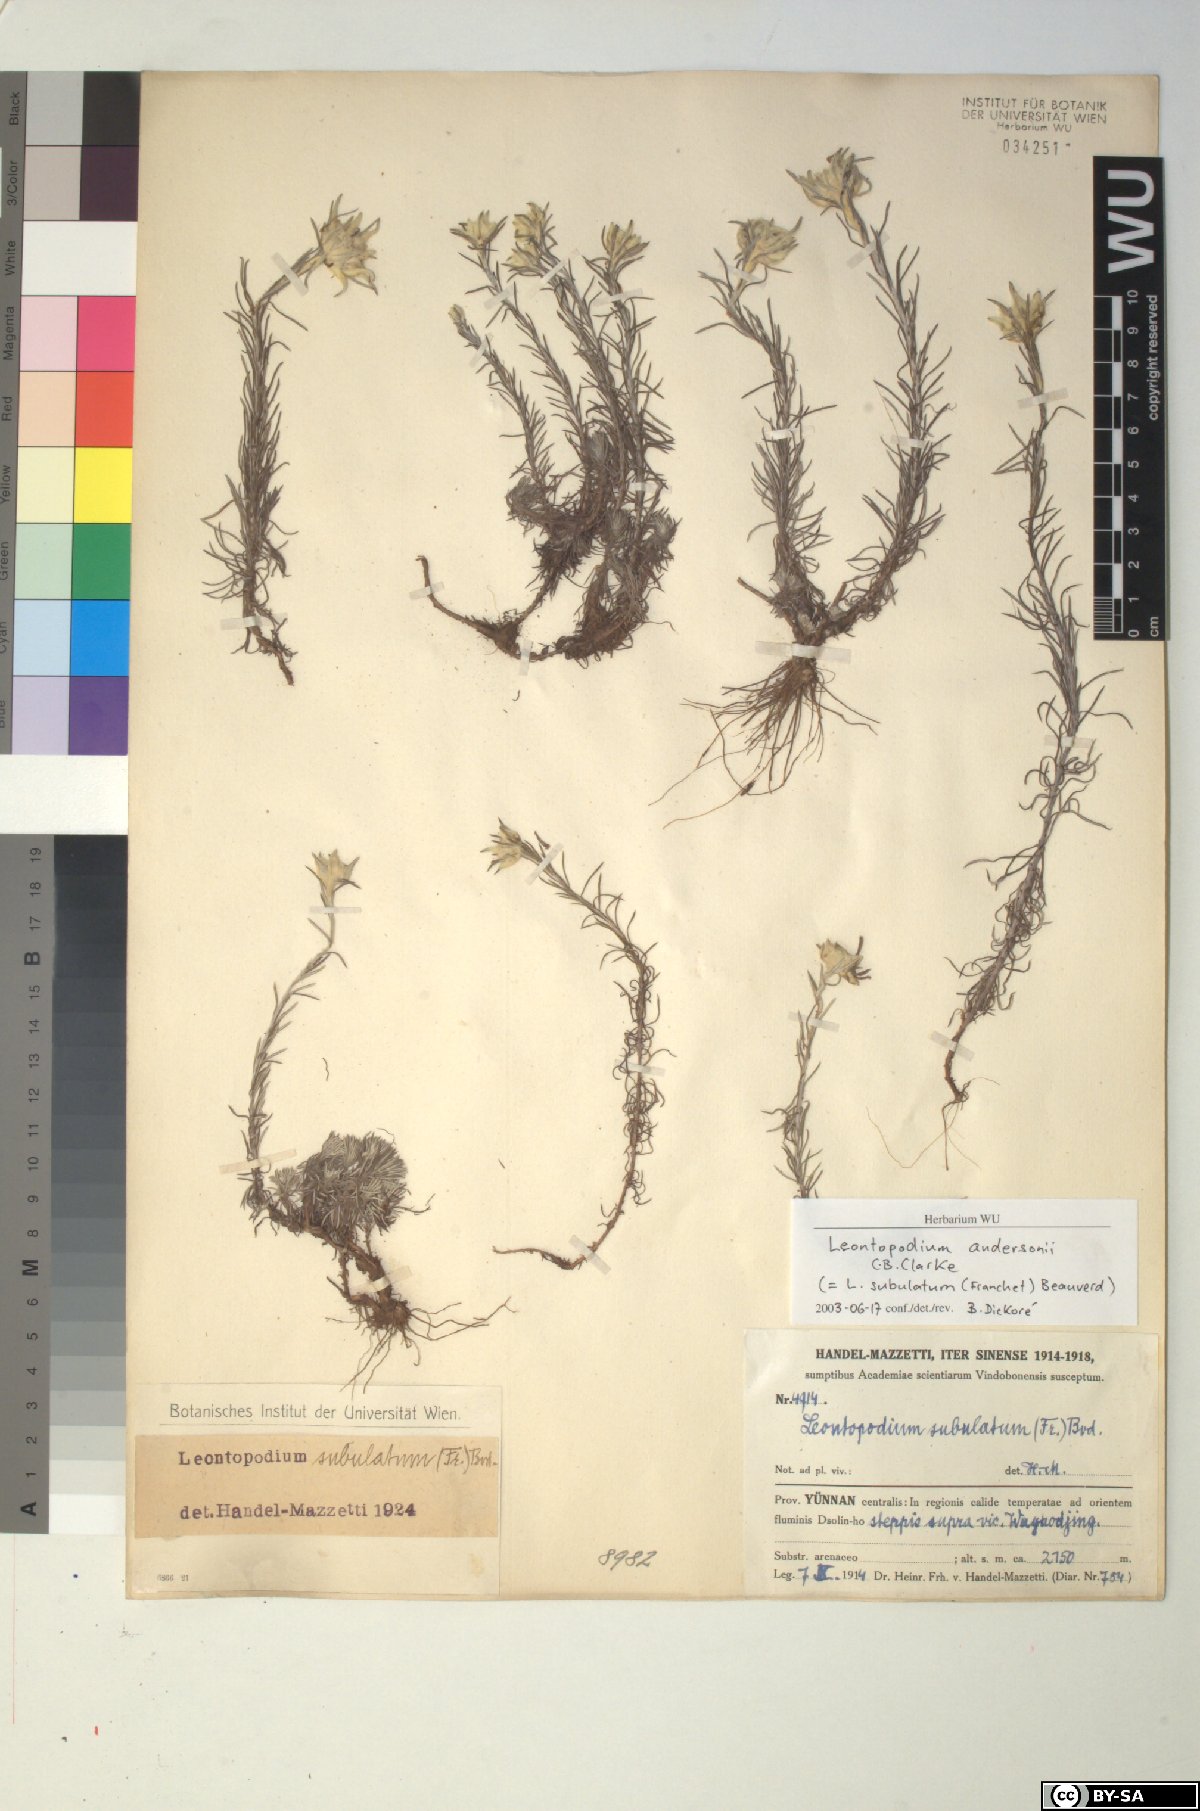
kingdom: Plantae
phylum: Tracheophyta
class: Magnoliopsida
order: Asterales
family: Asteraceae
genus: Leontopodium
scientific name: Leontopodium andersonii
